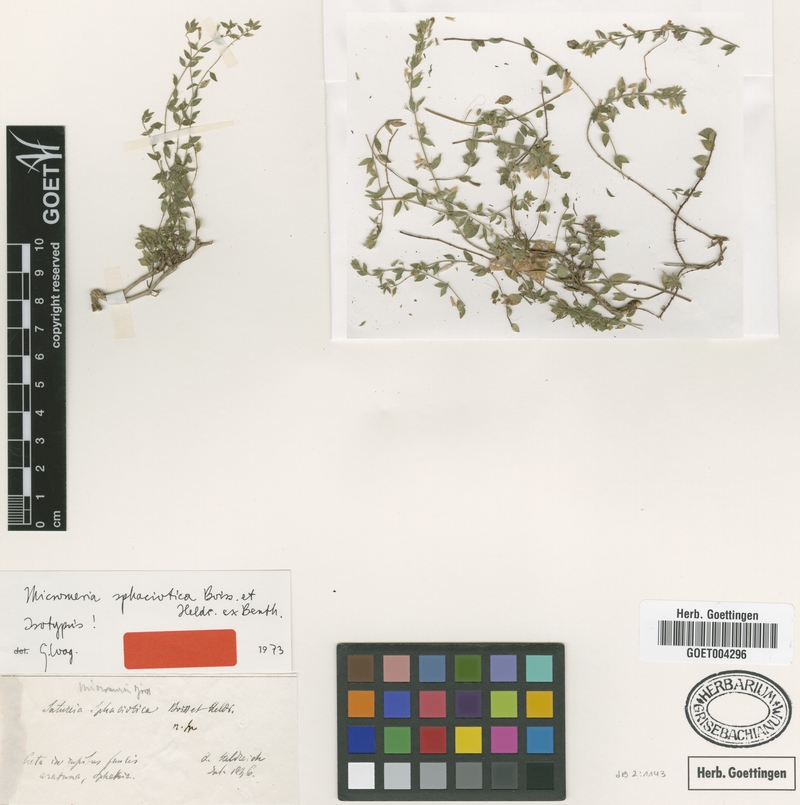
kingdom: Plantae
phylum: Tracheophyta
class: Magnoliopsida
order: Lamiales
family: Lamiaceae
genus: Micromeria
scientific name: Micromeria sphaciotica
